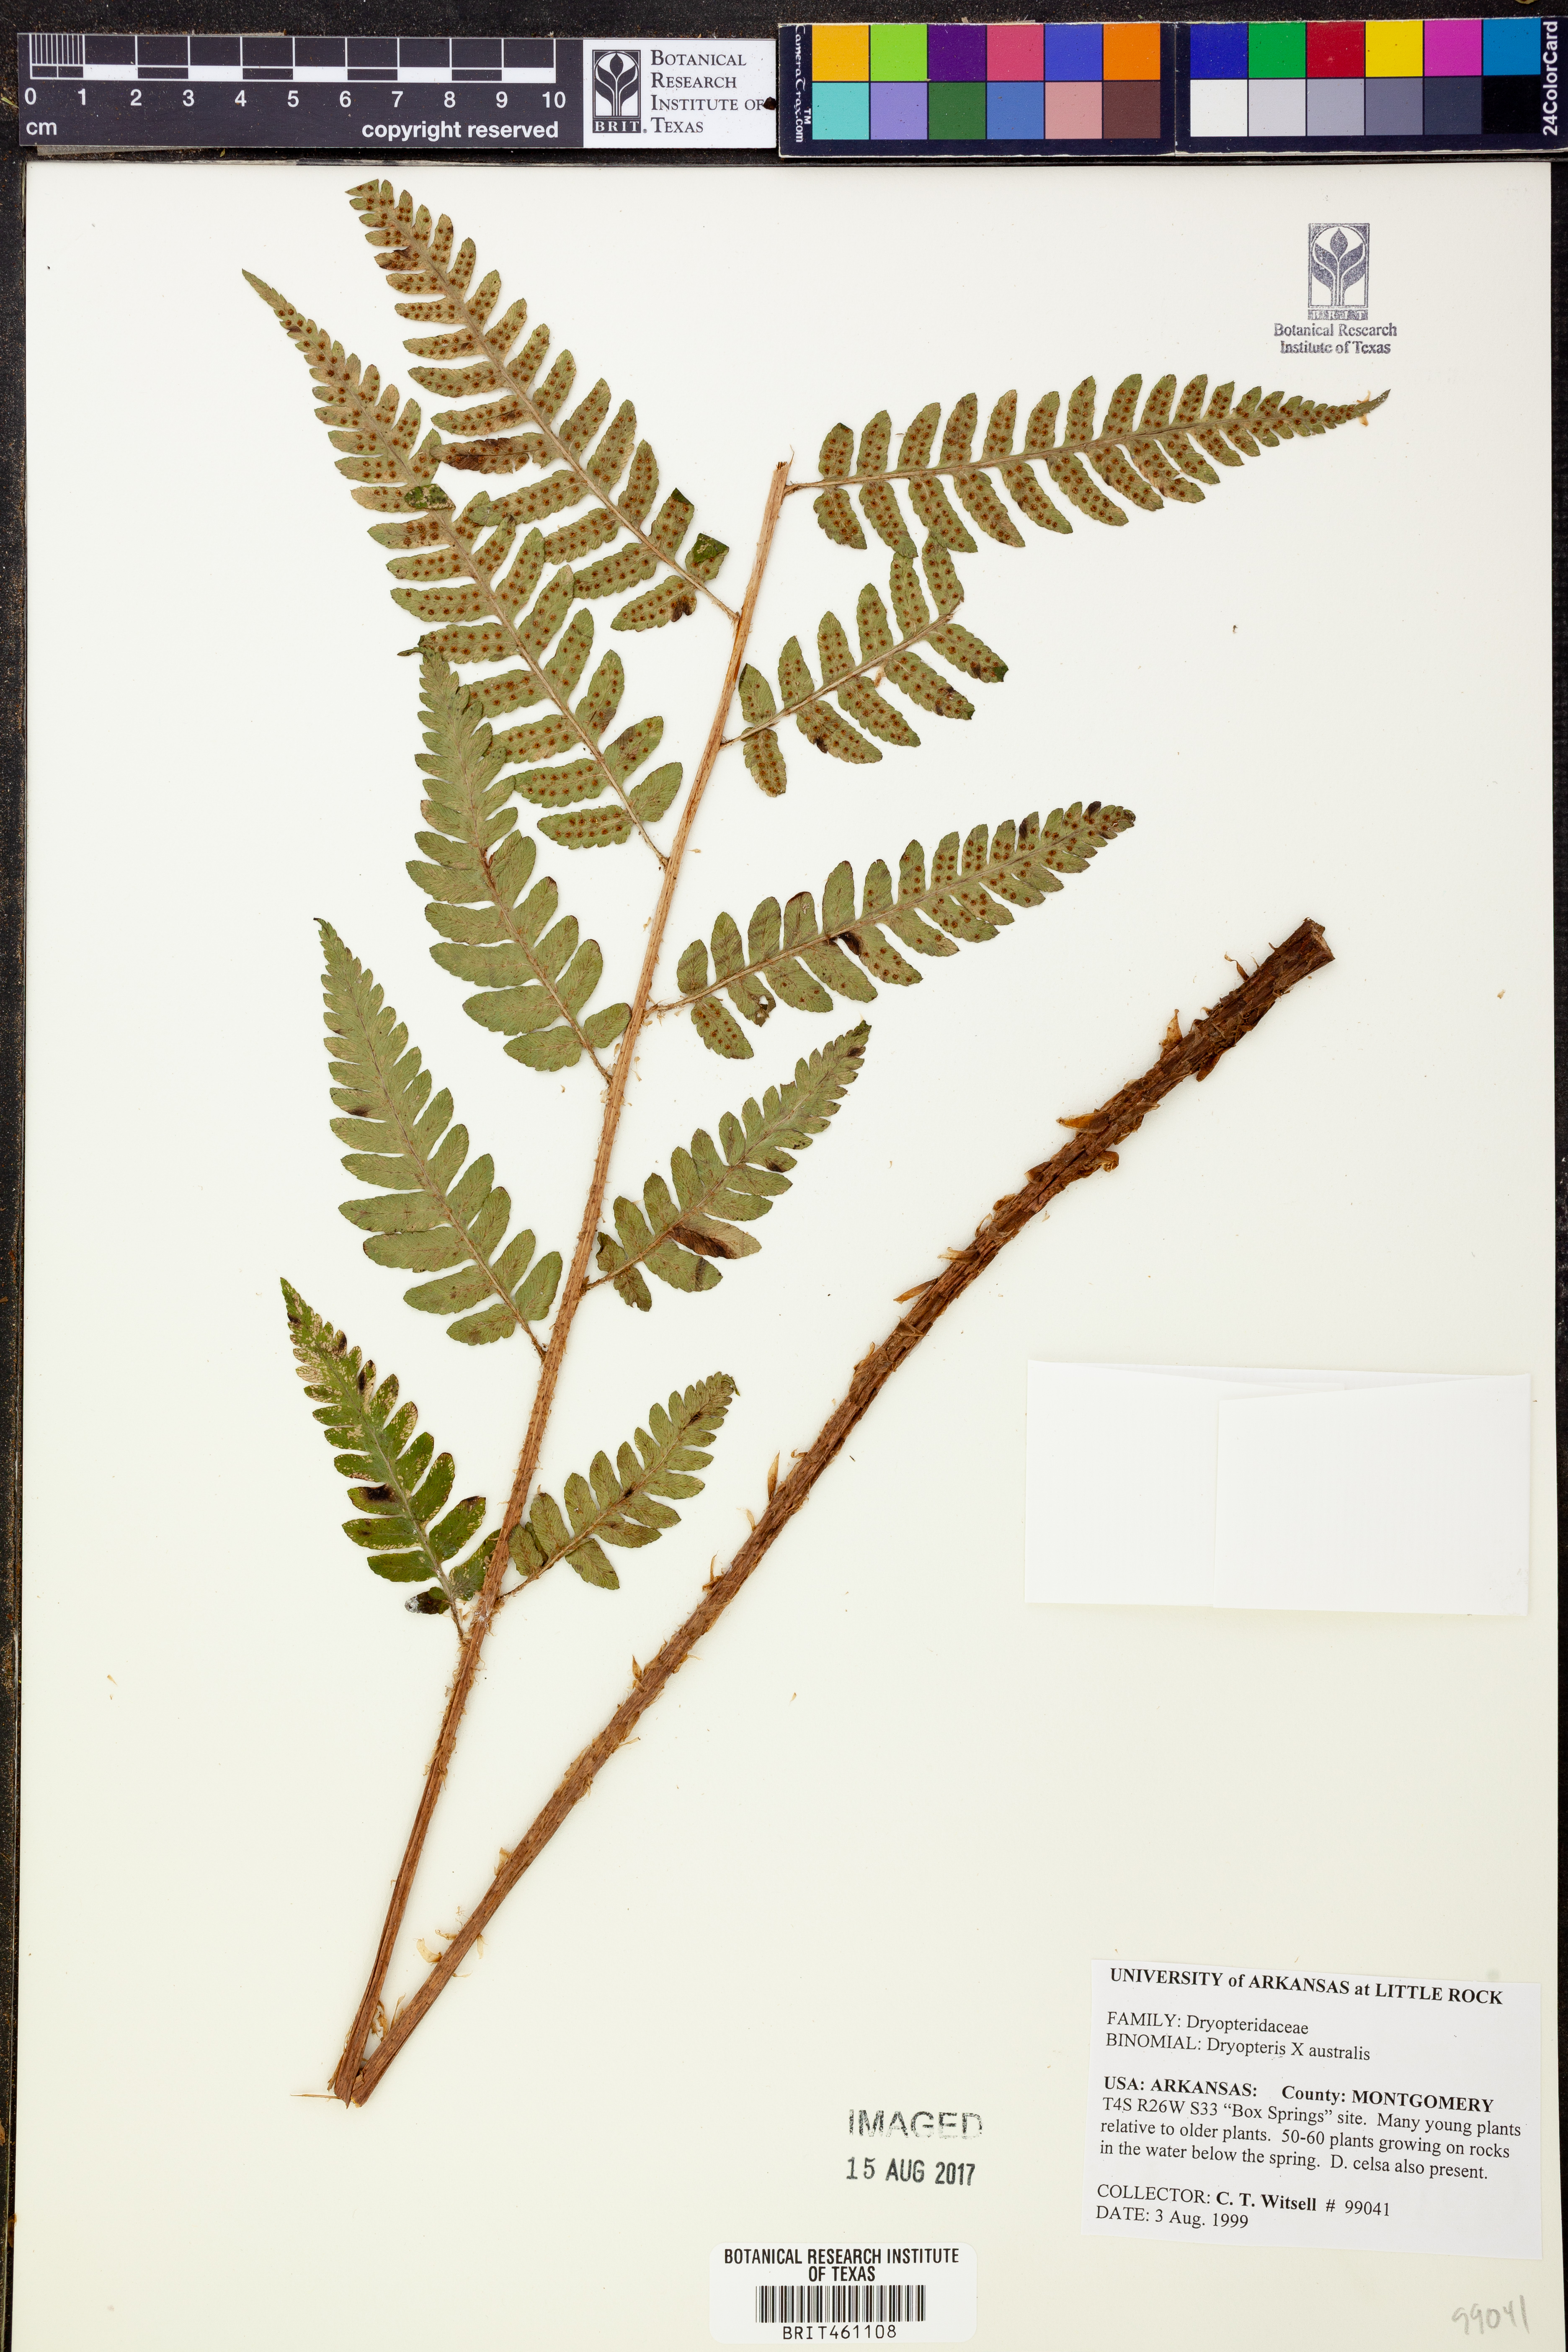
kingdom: Plantae
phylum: Tracheophyta
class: Polypodiopsida
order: Polypodiales
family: Dryopteridaceae
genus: Dryopteris
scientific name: Dryopteris
